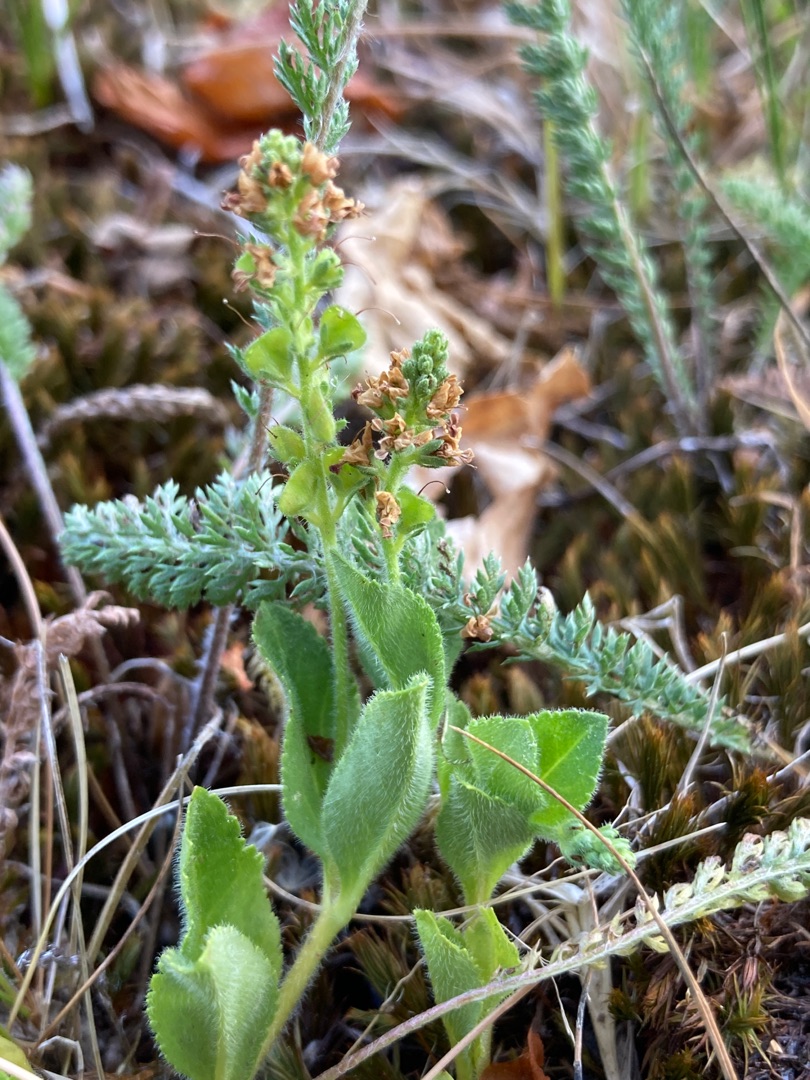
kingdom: Plantae
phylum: Tracheophyta
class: Magnoliopsida
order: Lamiales
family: Plantaginaceae
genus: Veronica
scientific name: Veronica officinalis
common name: Læge-ærenpris
